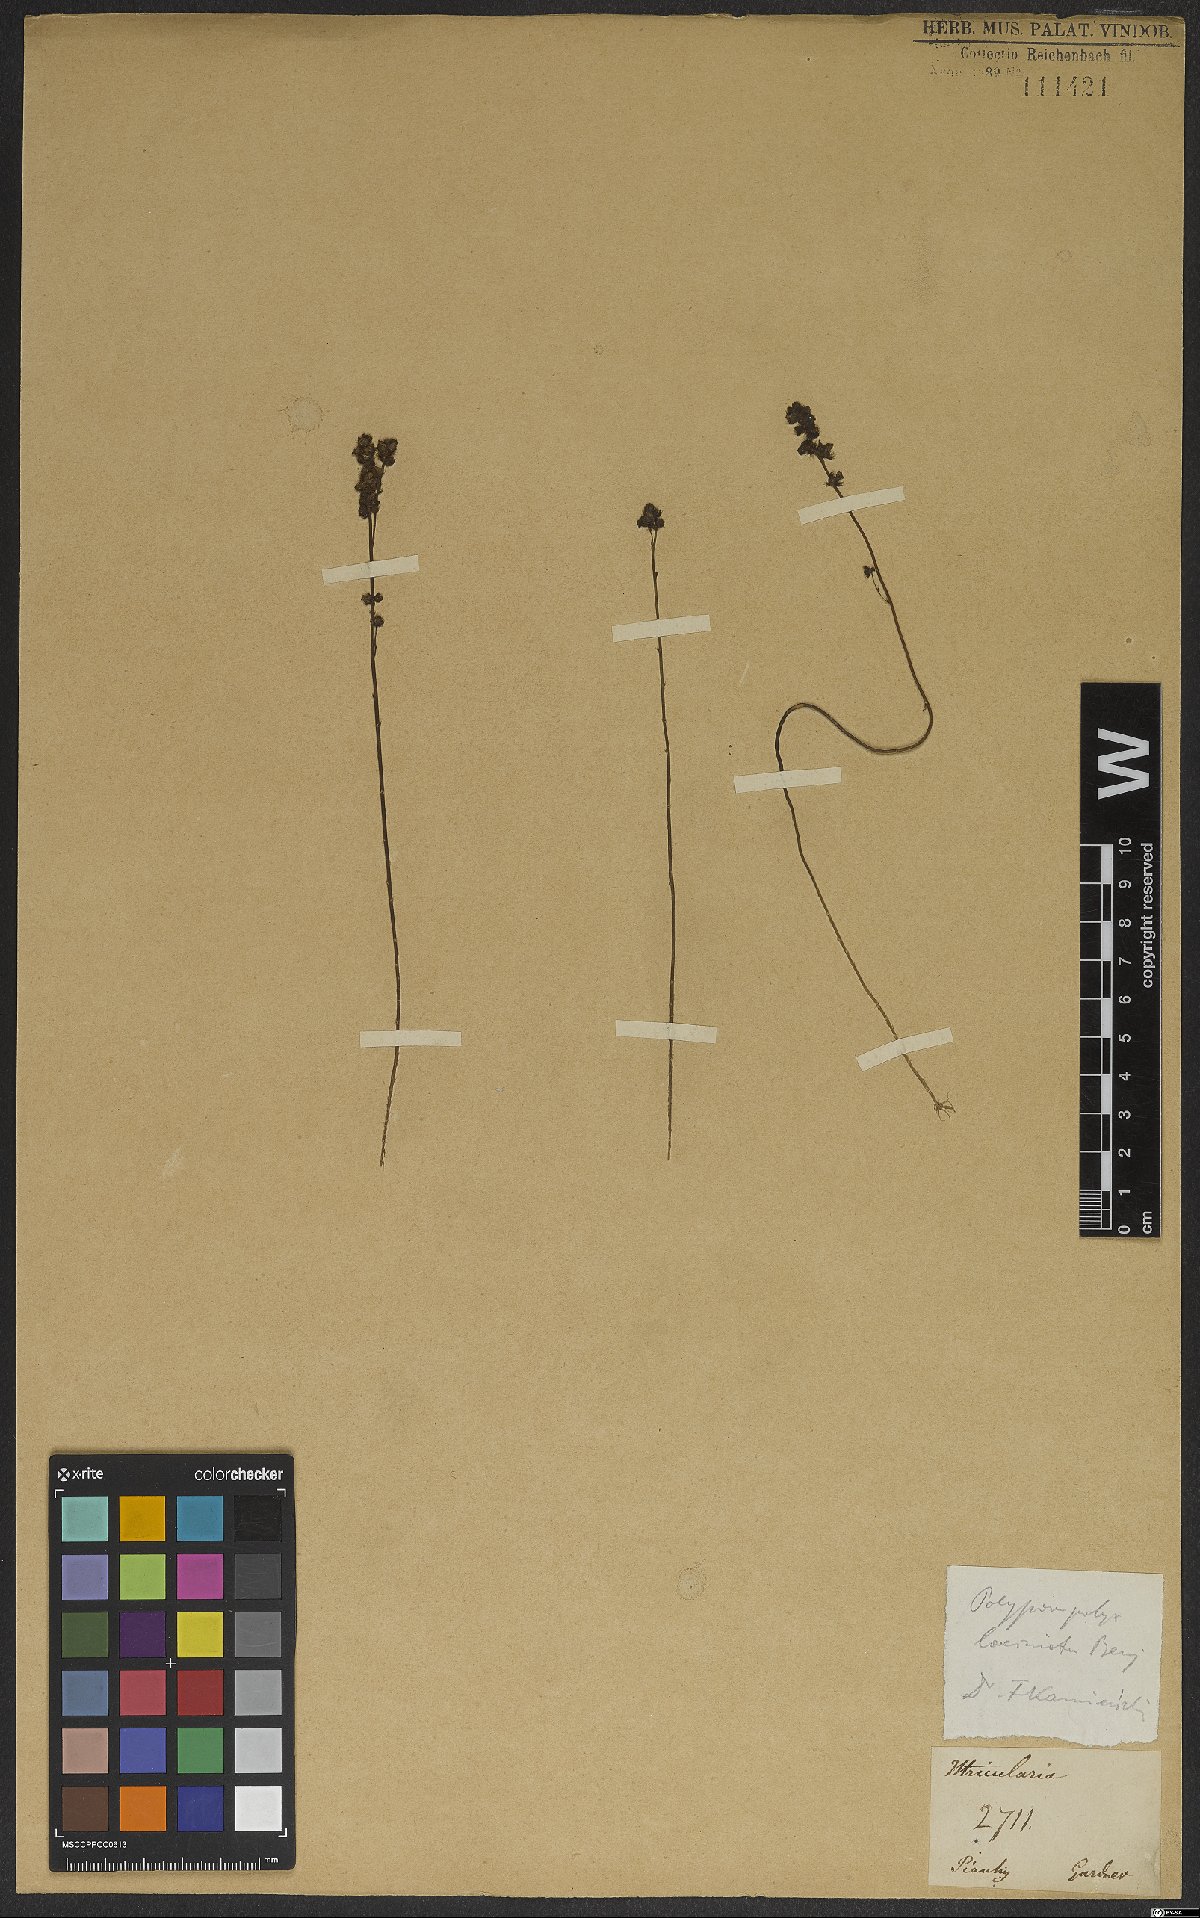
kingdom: Plantae
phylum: Tracheophyta
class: Magnoliopsida
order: Lamiales
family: Lentibulariaceae
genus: Utricularia
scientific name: Utricularia laciniata
